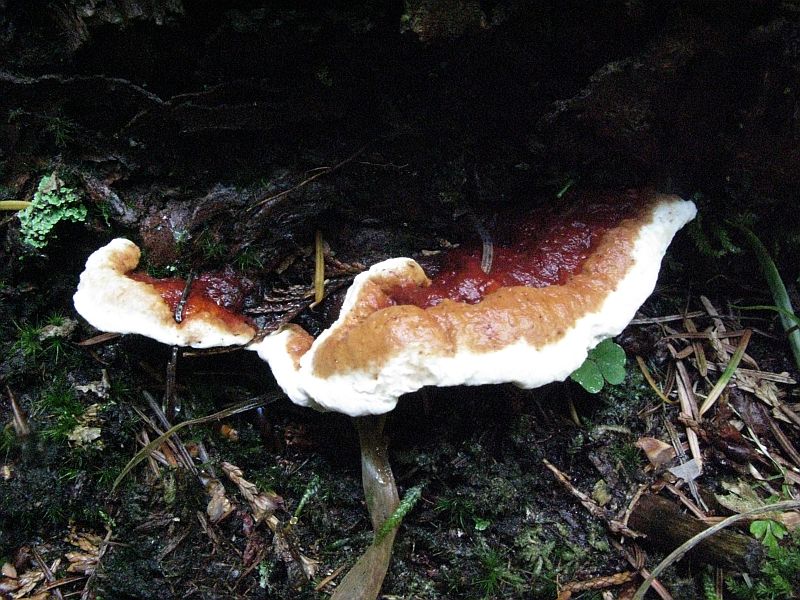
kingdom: Fungi
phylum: Basidiomycota
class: Agaricomycetes
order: Russulales
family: Bondarzewiaceae
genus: Heterobasidion
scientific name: Heterobasidion annosum
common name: almindelig rodfordærver
